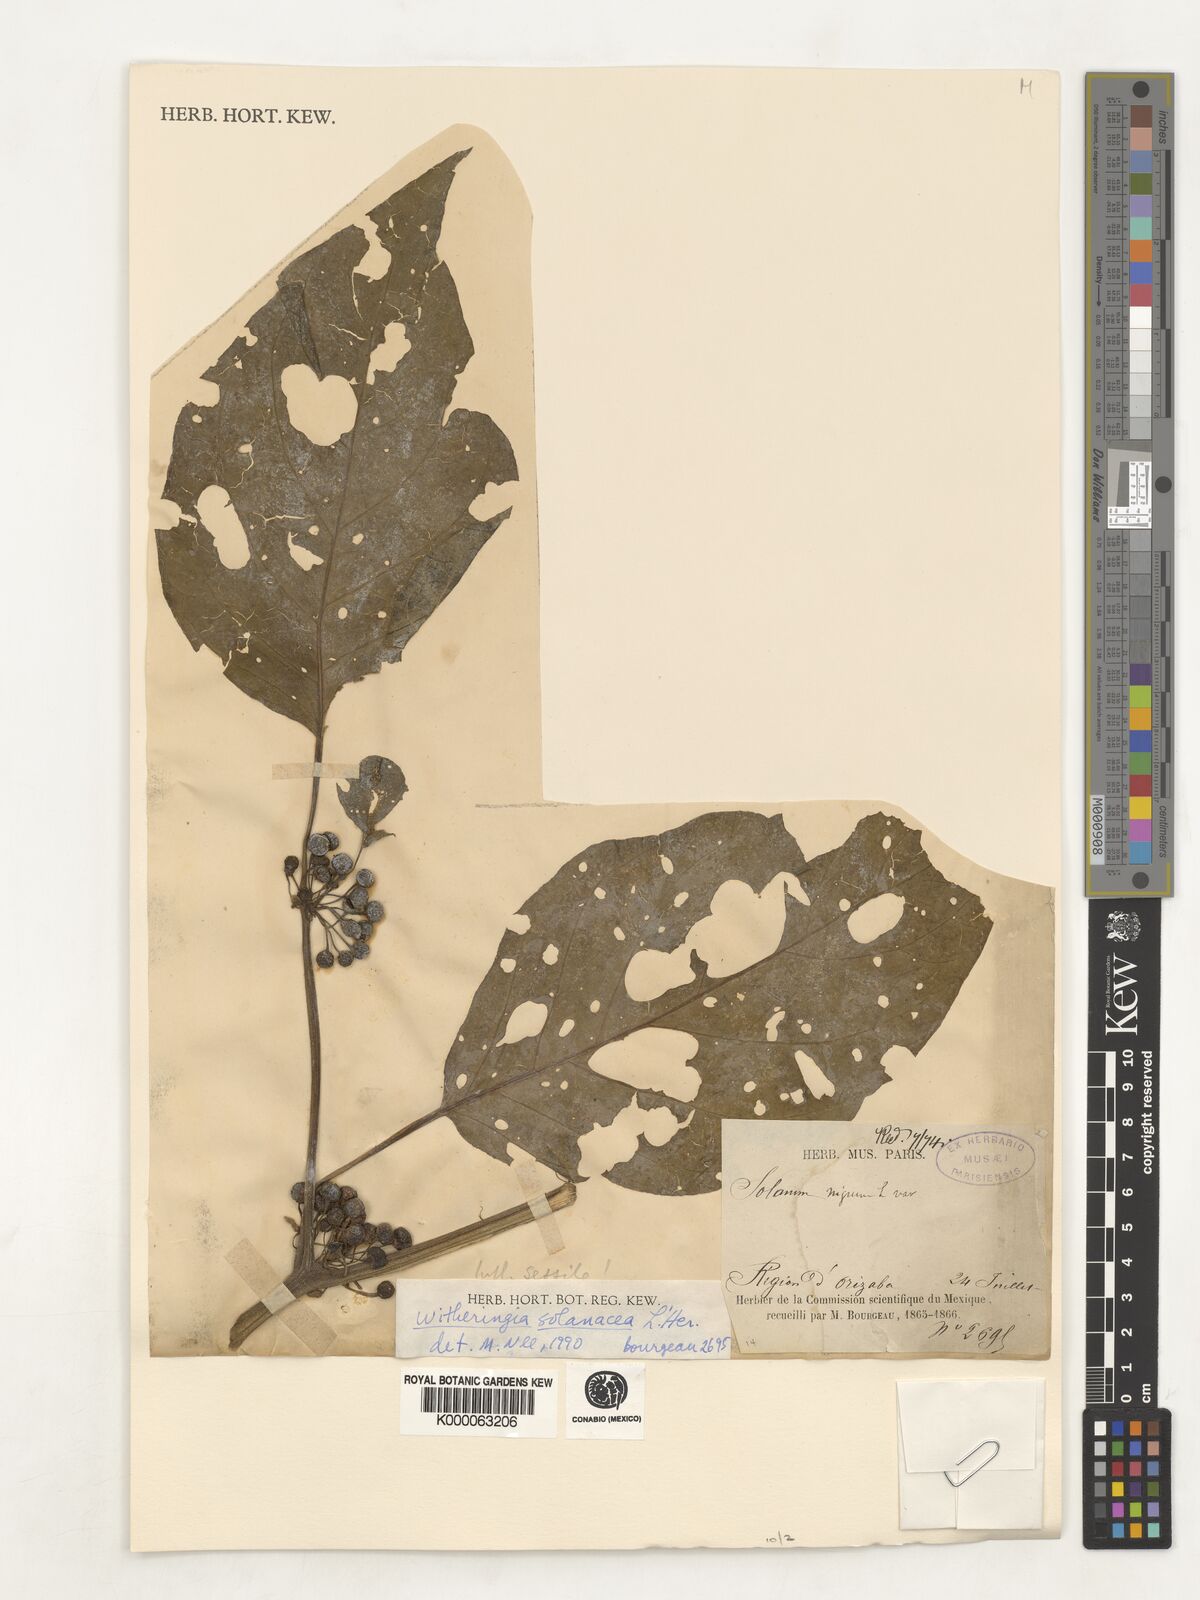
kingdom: Plantae
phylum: Tracheophyta
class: Magnoliopsida
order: Solanales
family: Solanaceae
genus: Witheringia
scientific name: Witheringia
